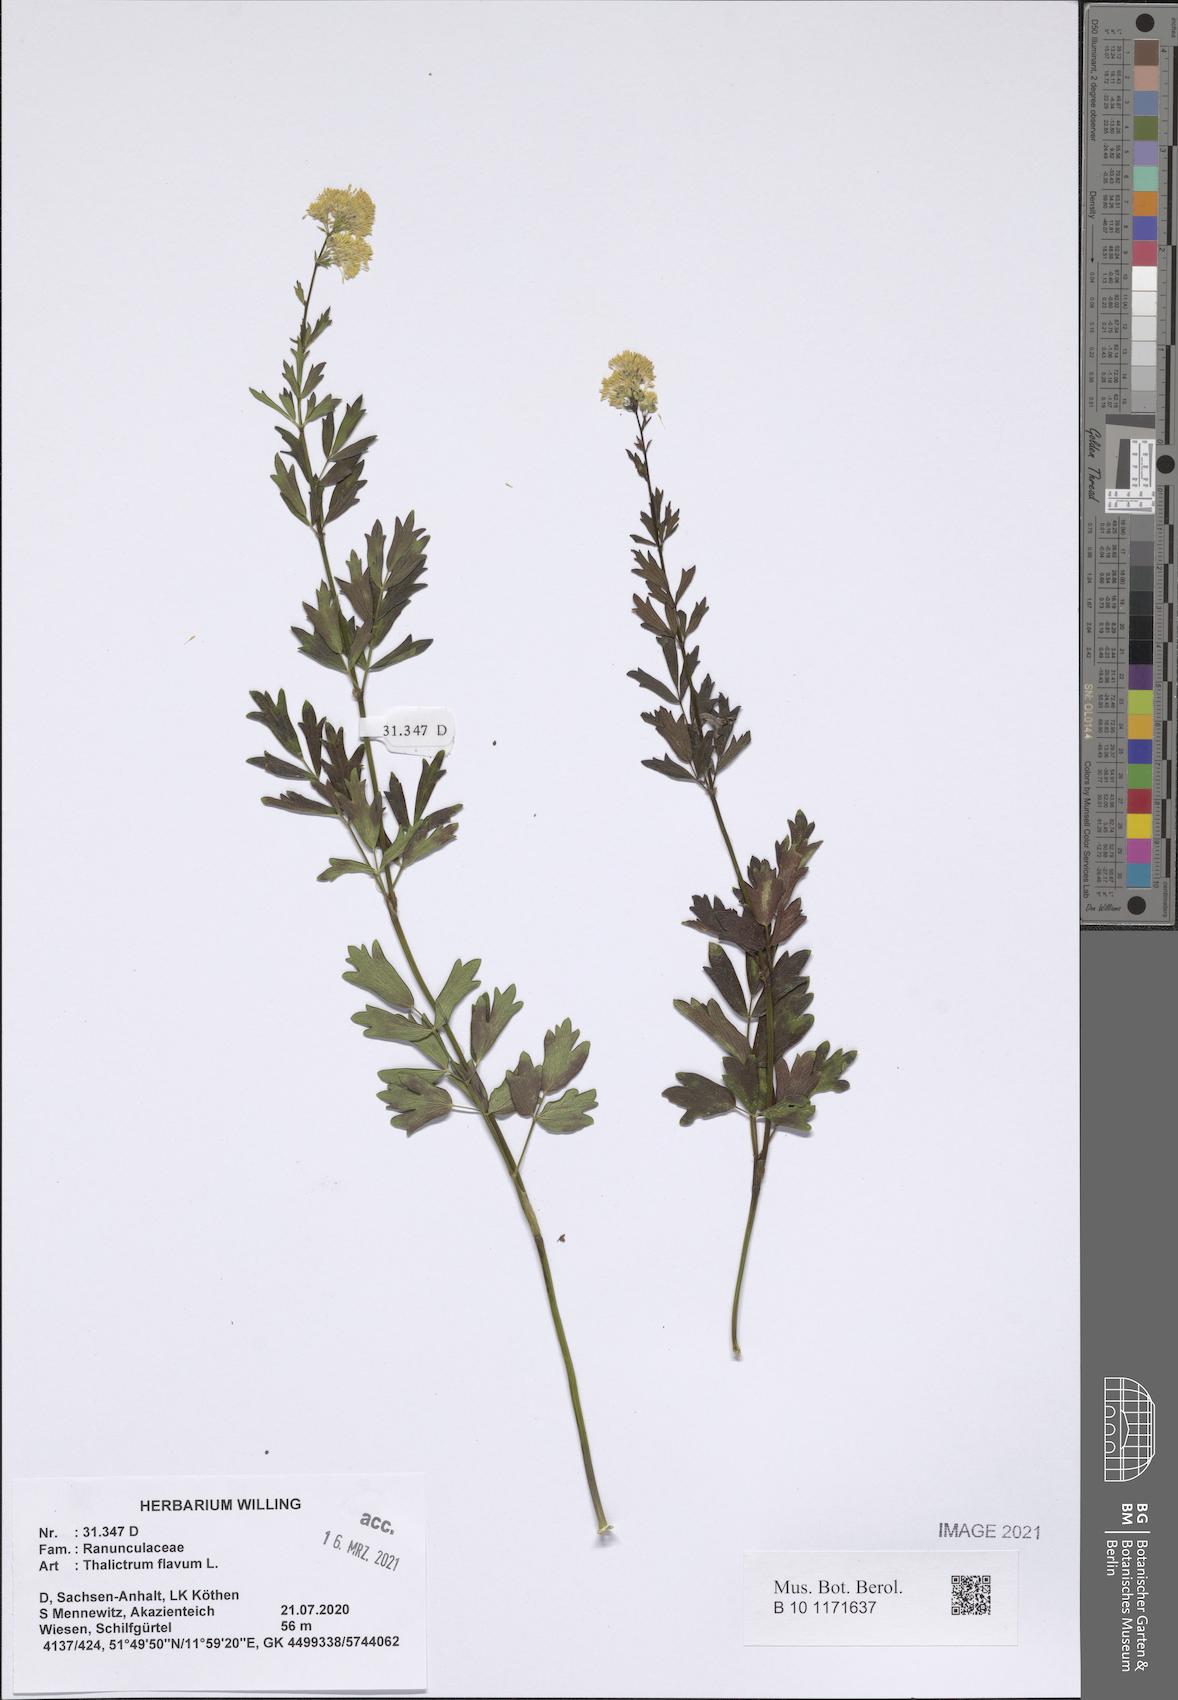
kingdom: Plantae
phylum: Tracheophyta
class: Magnoliopsida
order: Ranunculales
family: Ranunculaceae
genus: Thalictrum
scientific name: Thalictrum flavum
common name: Common meadow-rue
